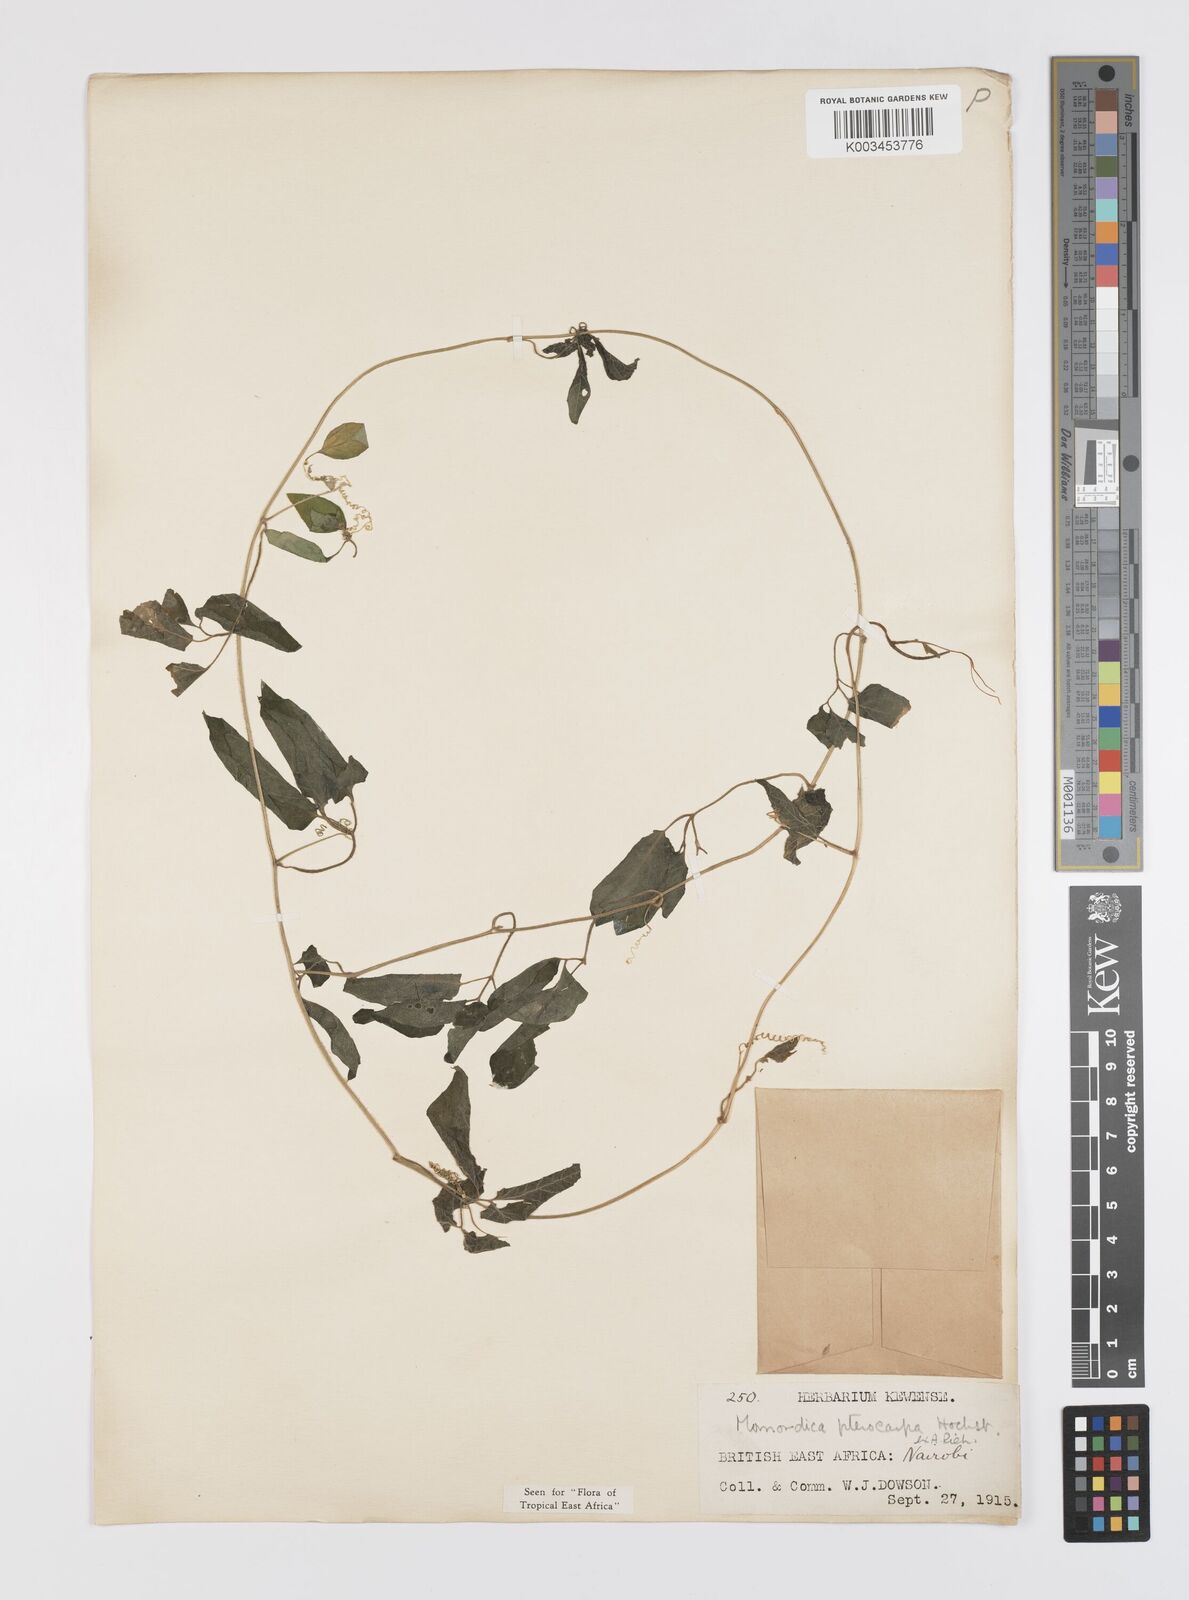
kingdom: Plantae
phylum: Tracheophyta
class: Magnoliopsida
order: Cucurbitales
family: Cucurbitaceae
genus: Momordica
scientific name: Momordica pterocarpa
